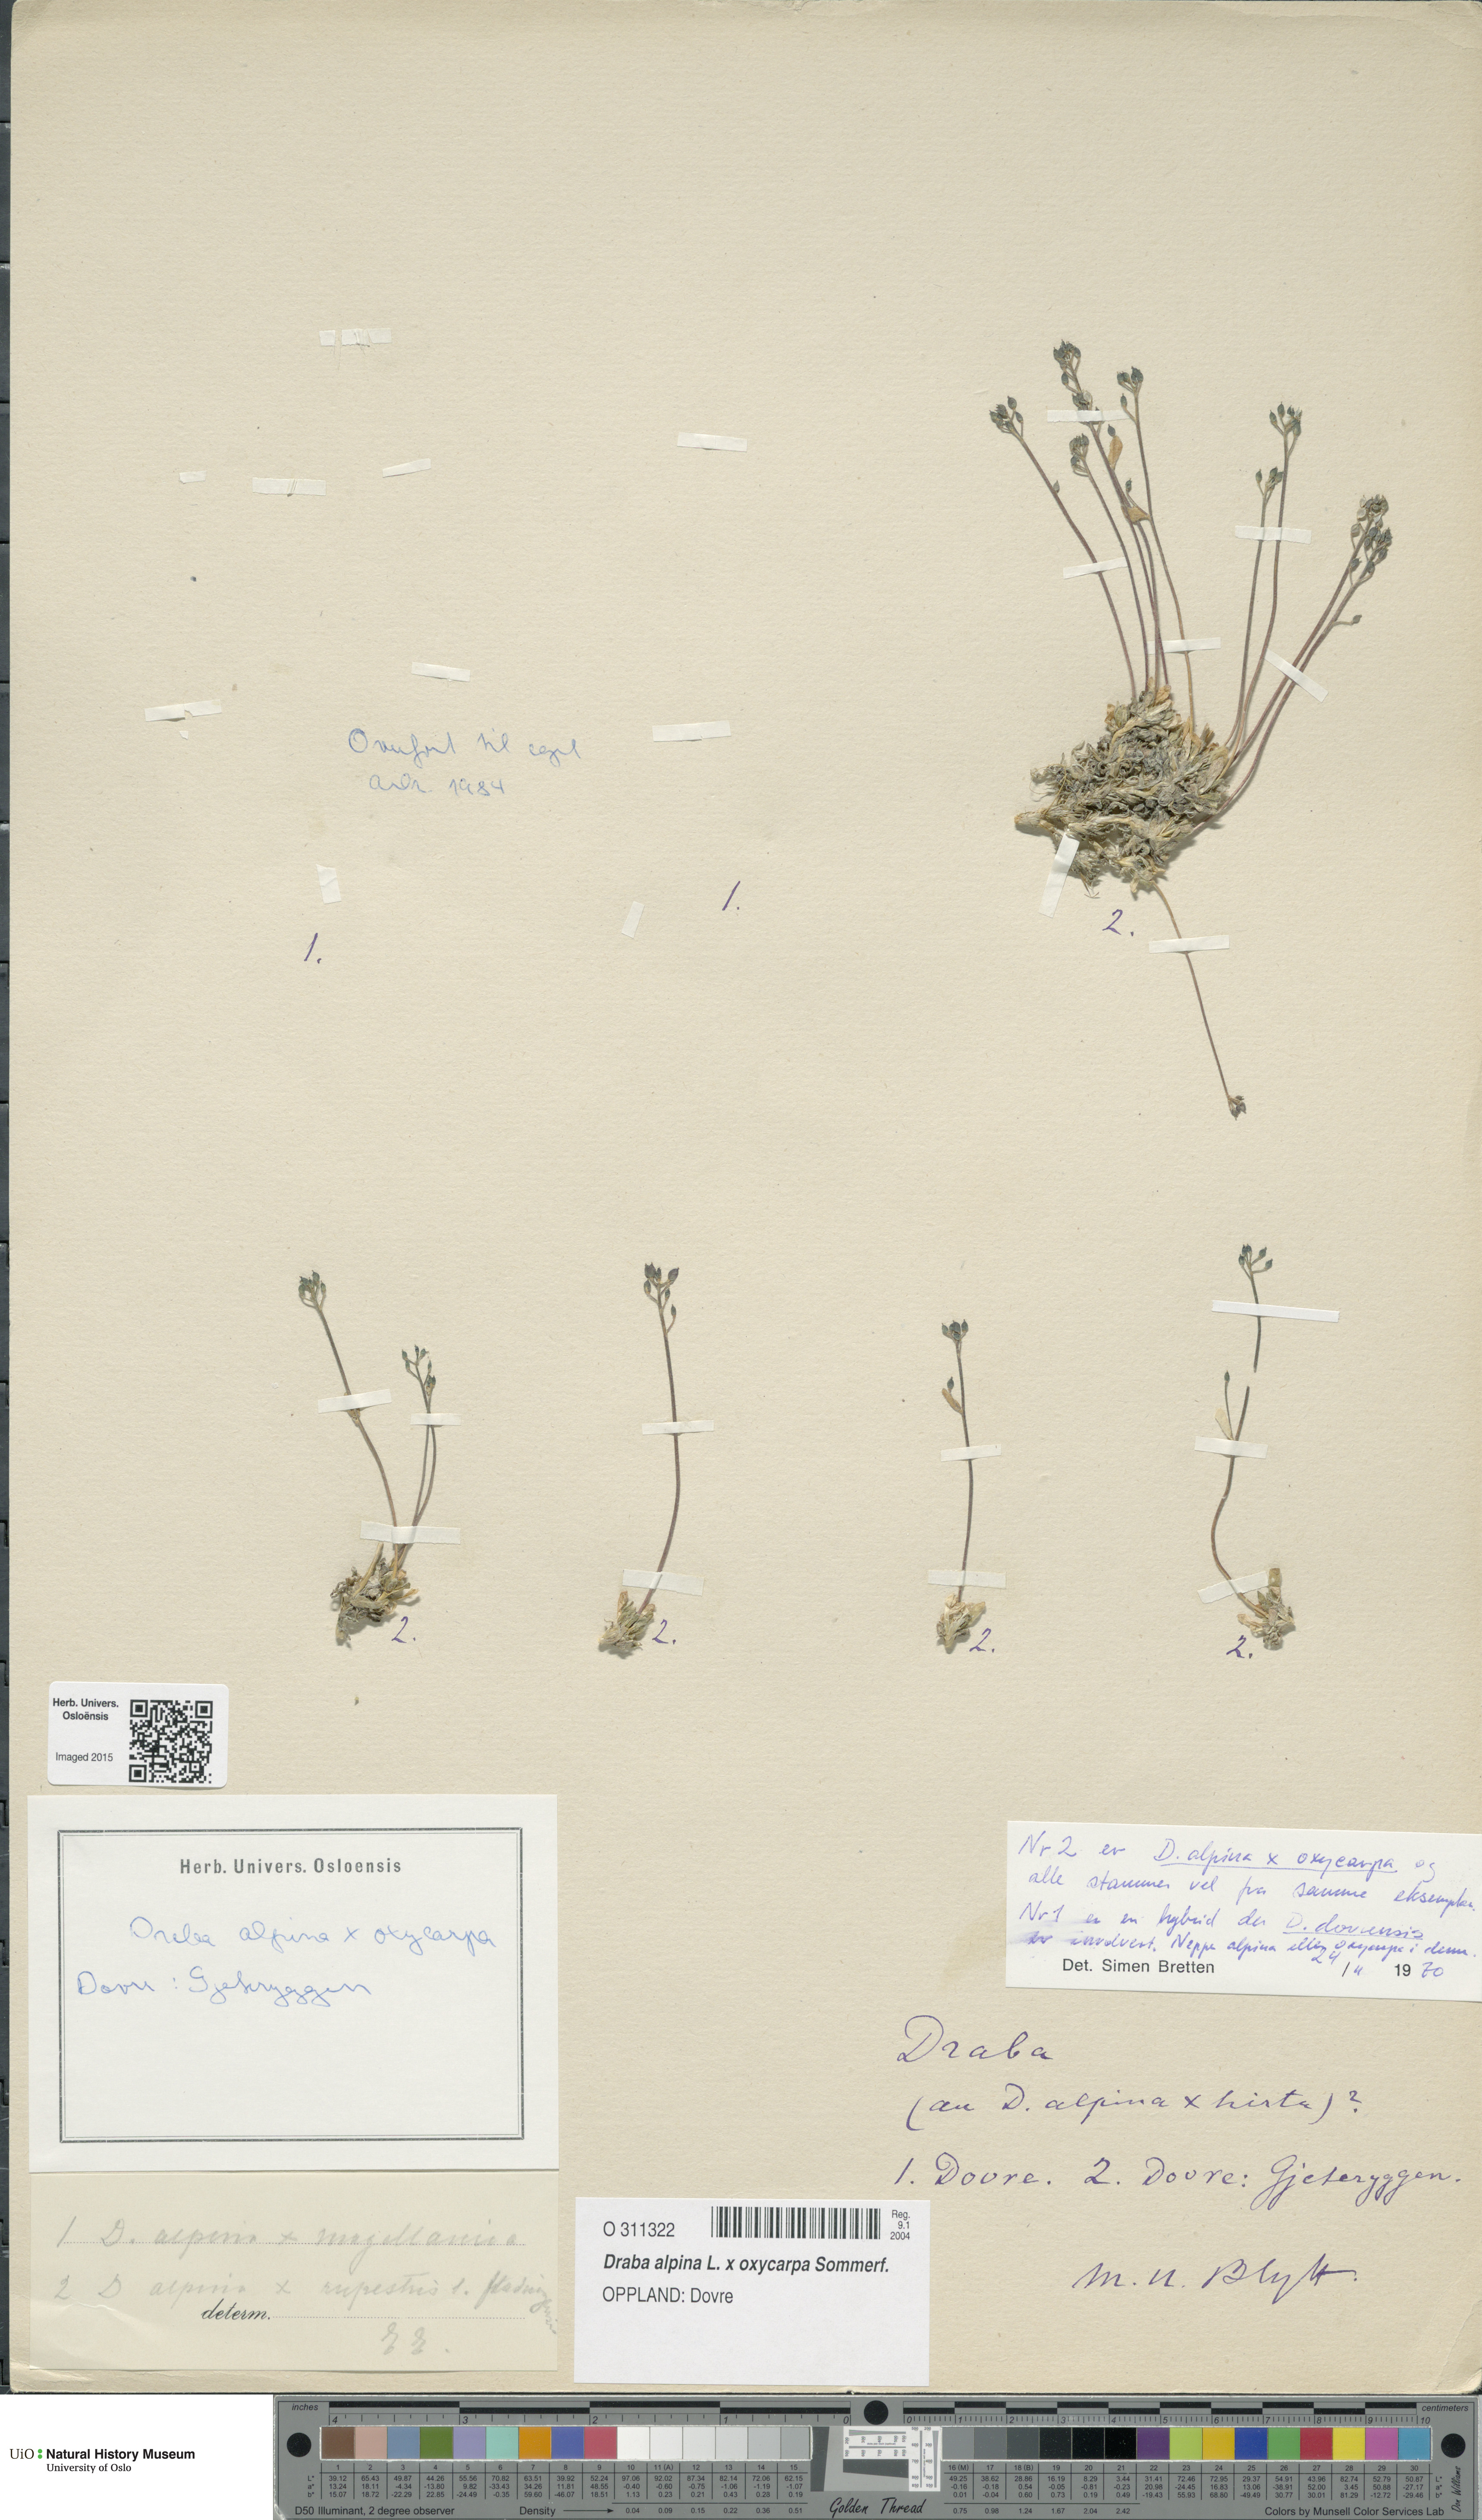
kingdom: Plantae
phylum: Tracheophyta
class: Magnoliopsida
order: Brassicales
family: Brassicaceae
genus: Draba
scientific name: Draba
